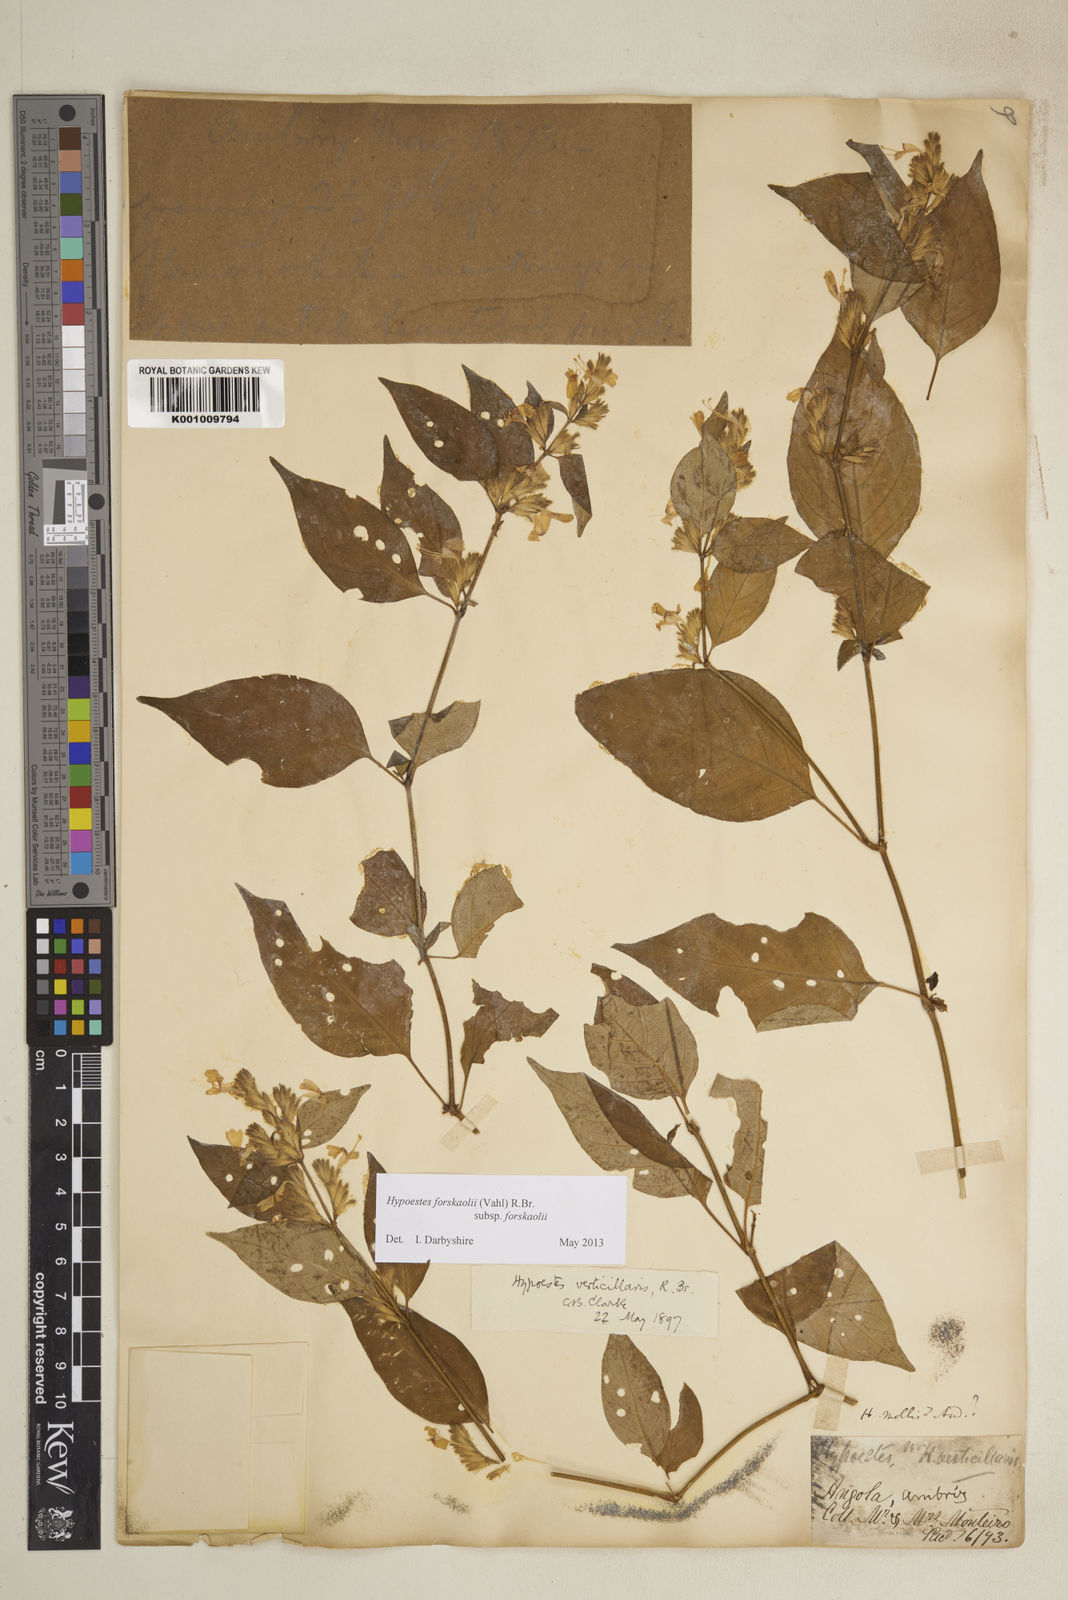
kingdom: Plantae
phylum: Tracheophyta
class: Magnoliopsida
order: Lamiales
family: Acanthaceae
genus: Hypoestes
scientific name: Hypoestes forskaolii
